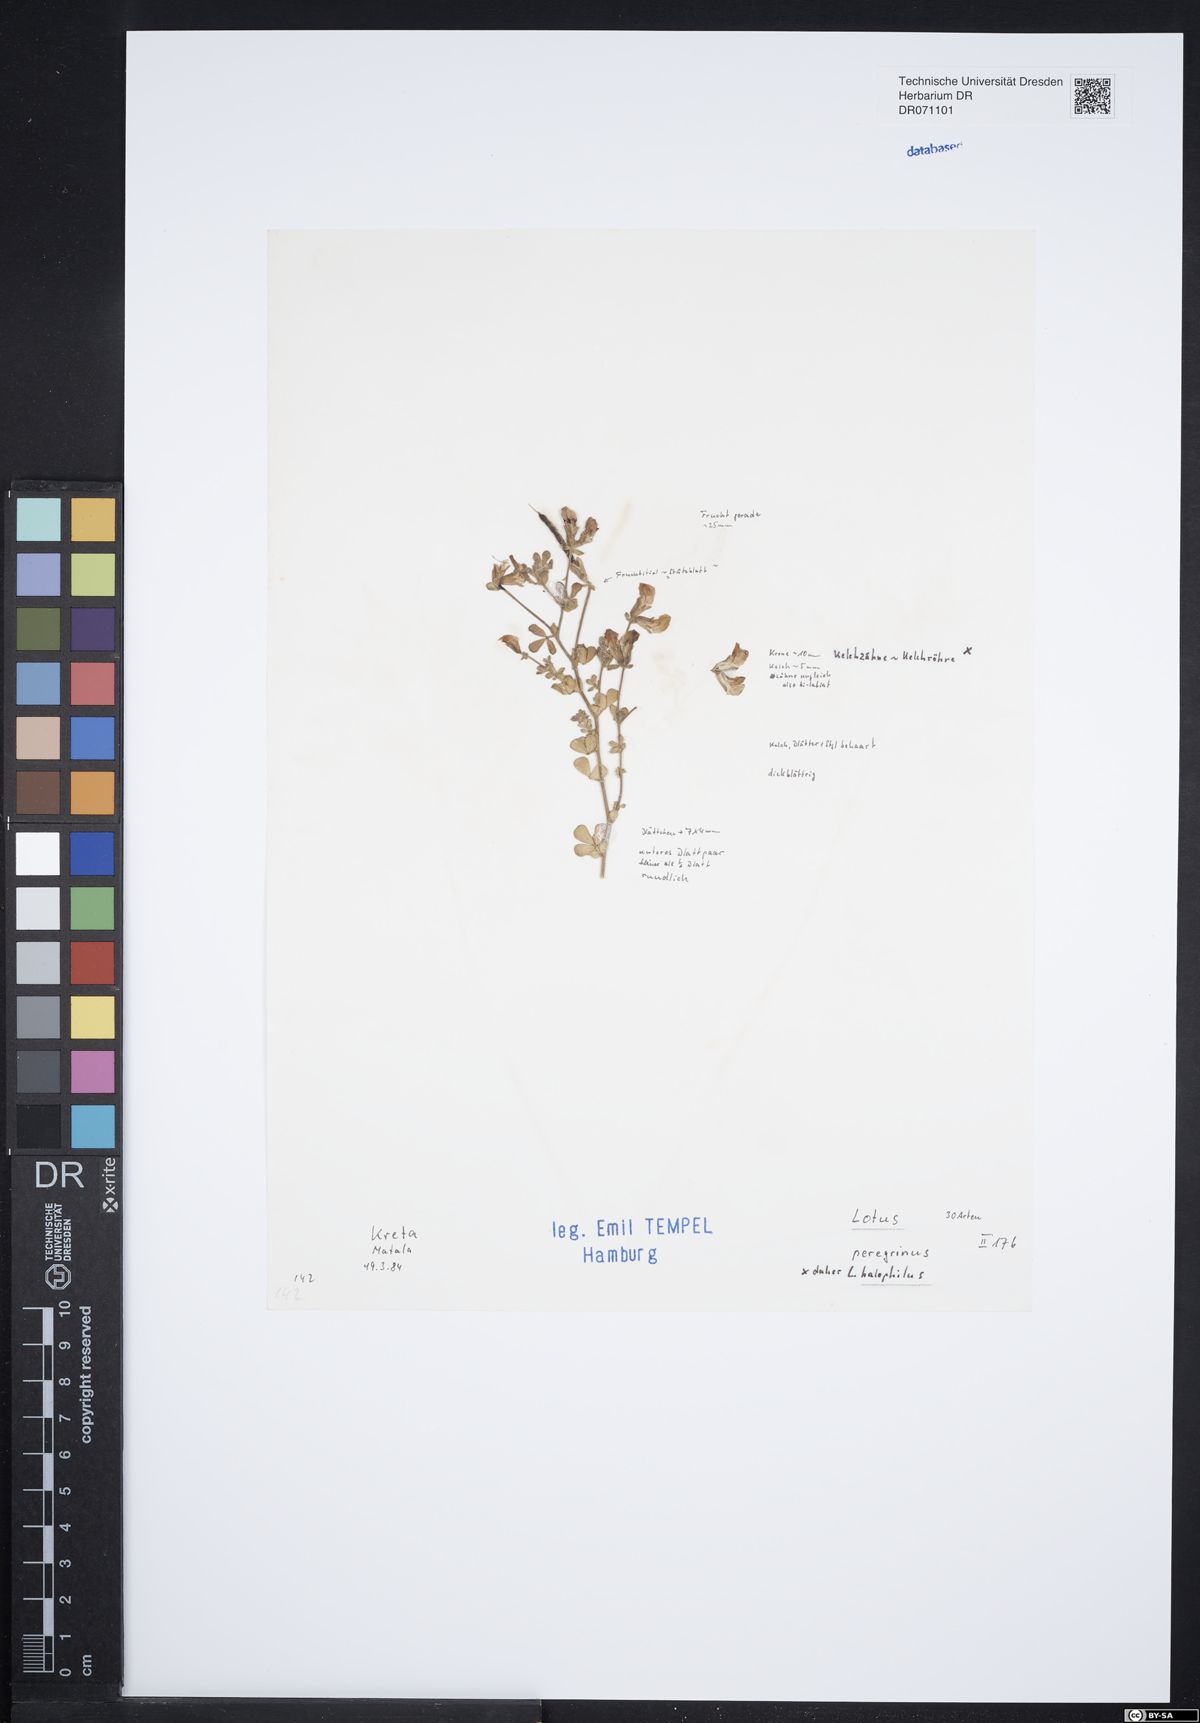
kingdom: Plantae
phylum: Tracheophyta
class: Magnoliopsida
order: Fabales
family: Fabaceae
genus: Lotus
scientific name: Lotus halophilus
